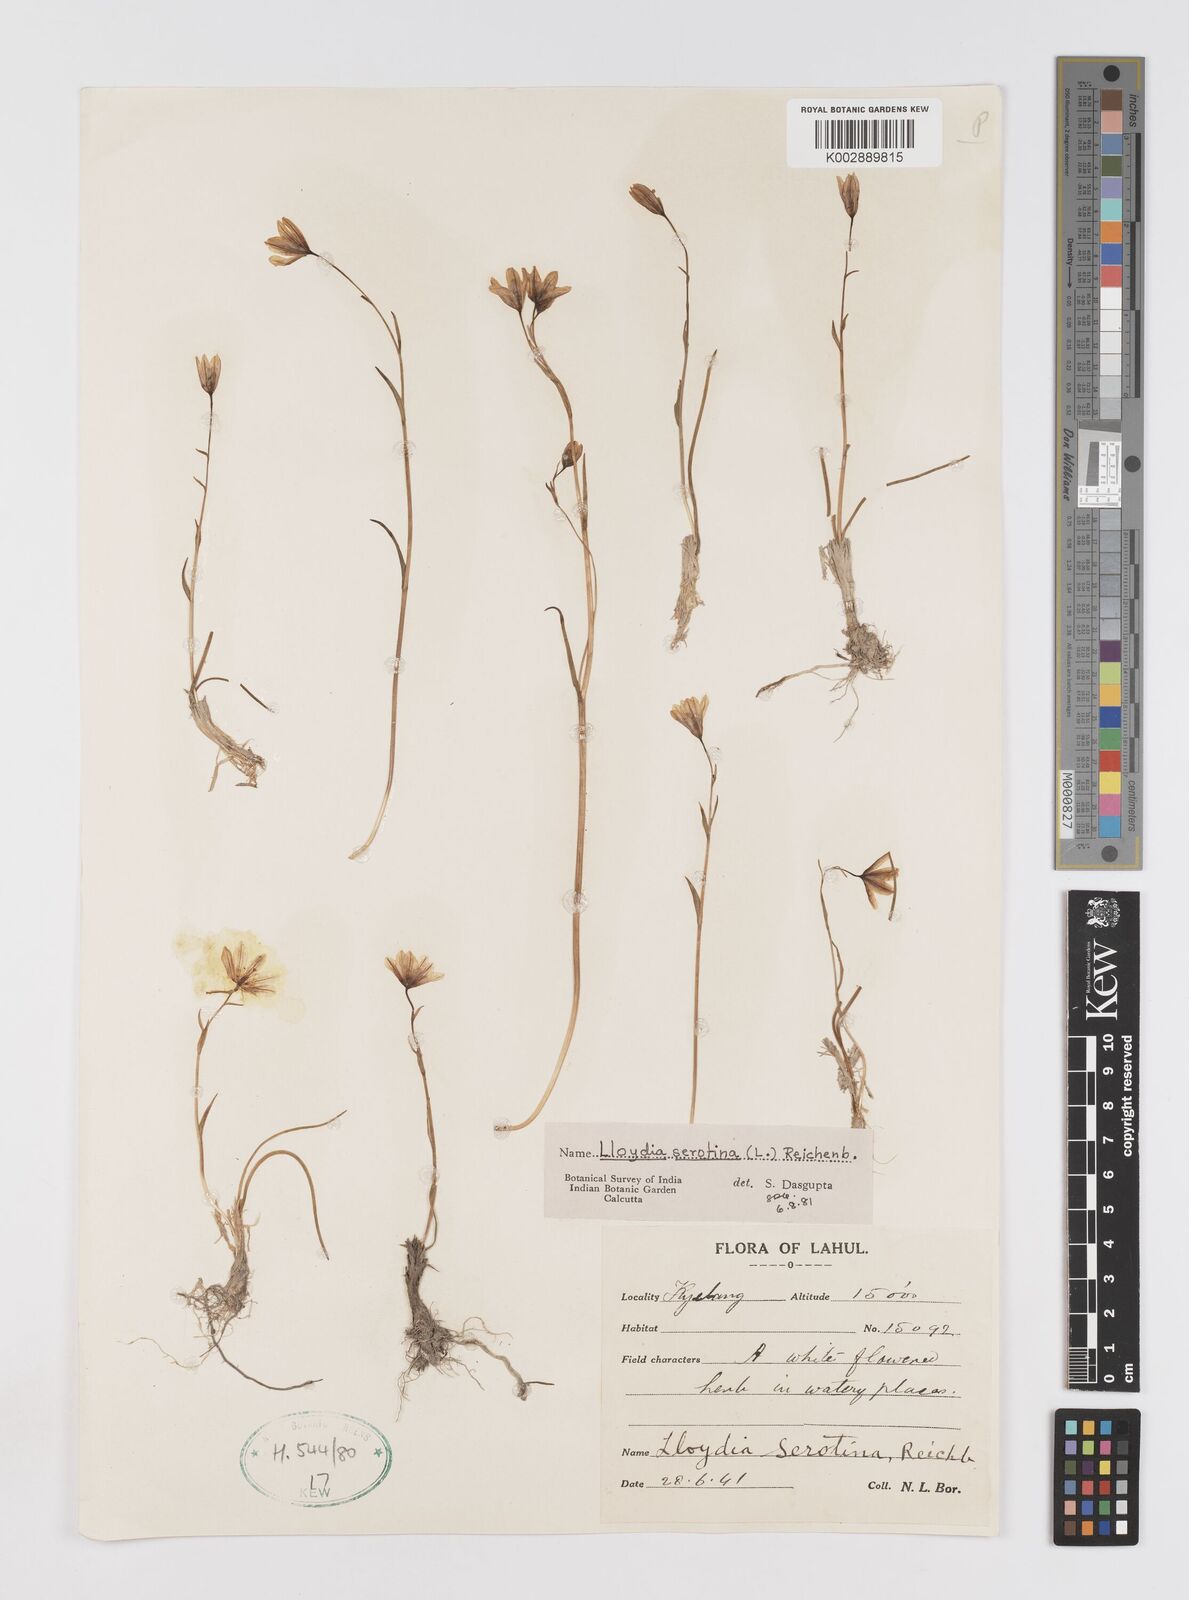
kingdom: Plantae
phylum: Tracheophyta
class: Liliopsida
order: Liliales
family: Liliaceae
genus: Gagea
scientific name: Gagea serotina
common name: Snowdon lily
